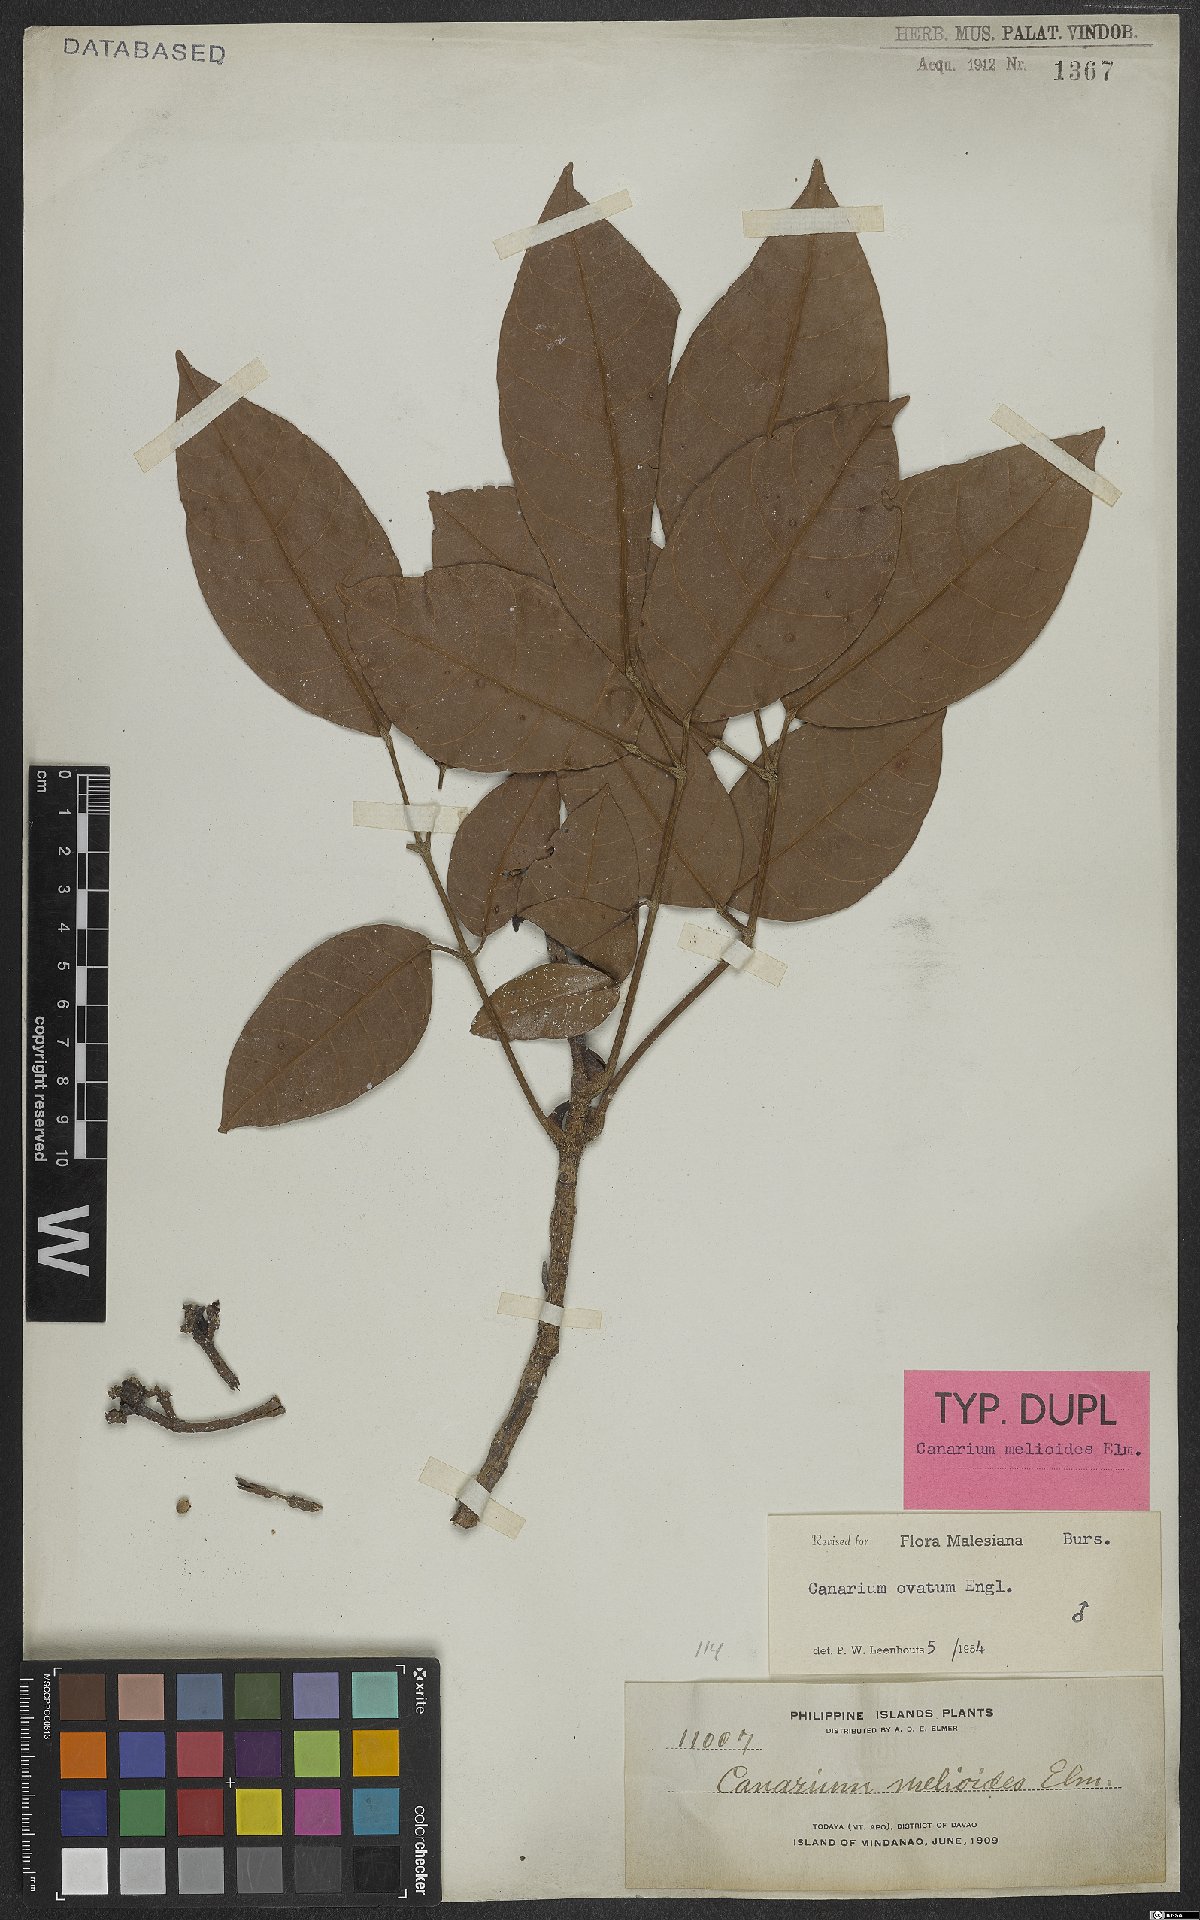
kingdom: Plantae
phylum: Tracheophyta
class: Magnoliopsida
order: Sapindales
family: Burseraceae
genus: Canarium
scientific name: Canarium ovatum
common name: Pilinut
